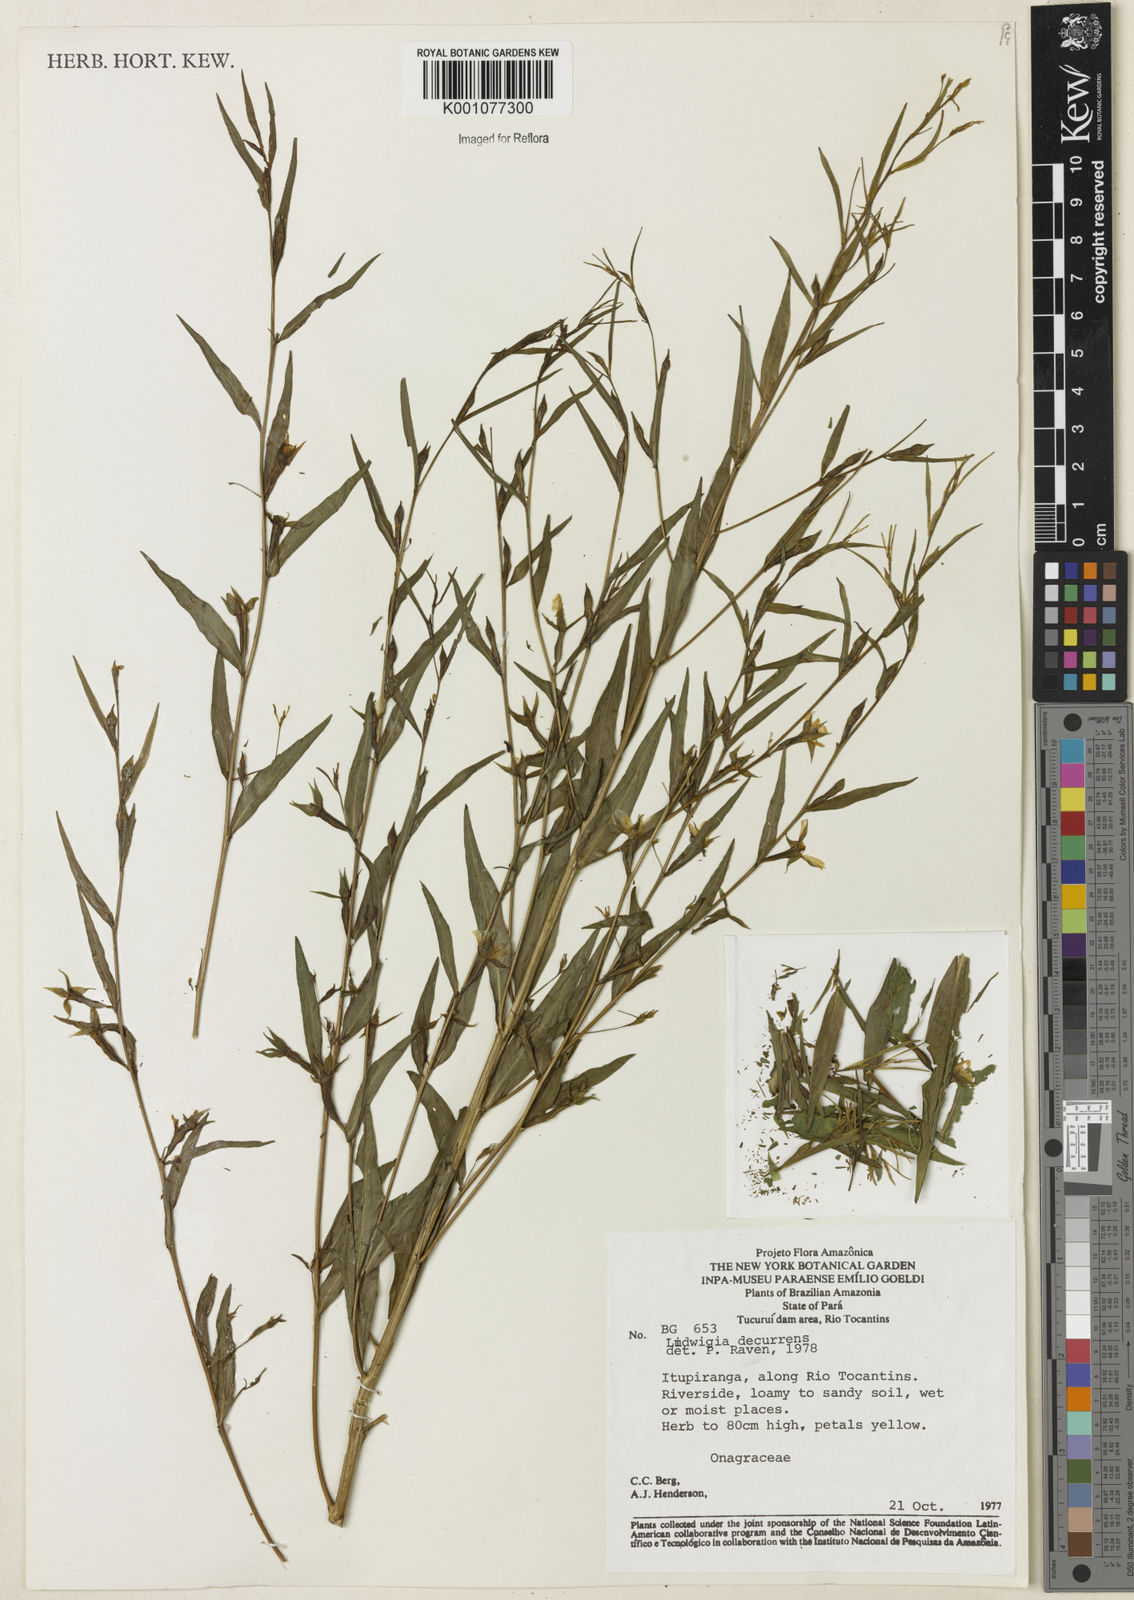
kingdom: Plantae
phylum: Tracheophyta
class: Magnoliopsida
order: Myrtales
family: Onagraceae
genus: Ludwigia
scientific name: Ludwigia decurrens
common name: Winged water-primrose
